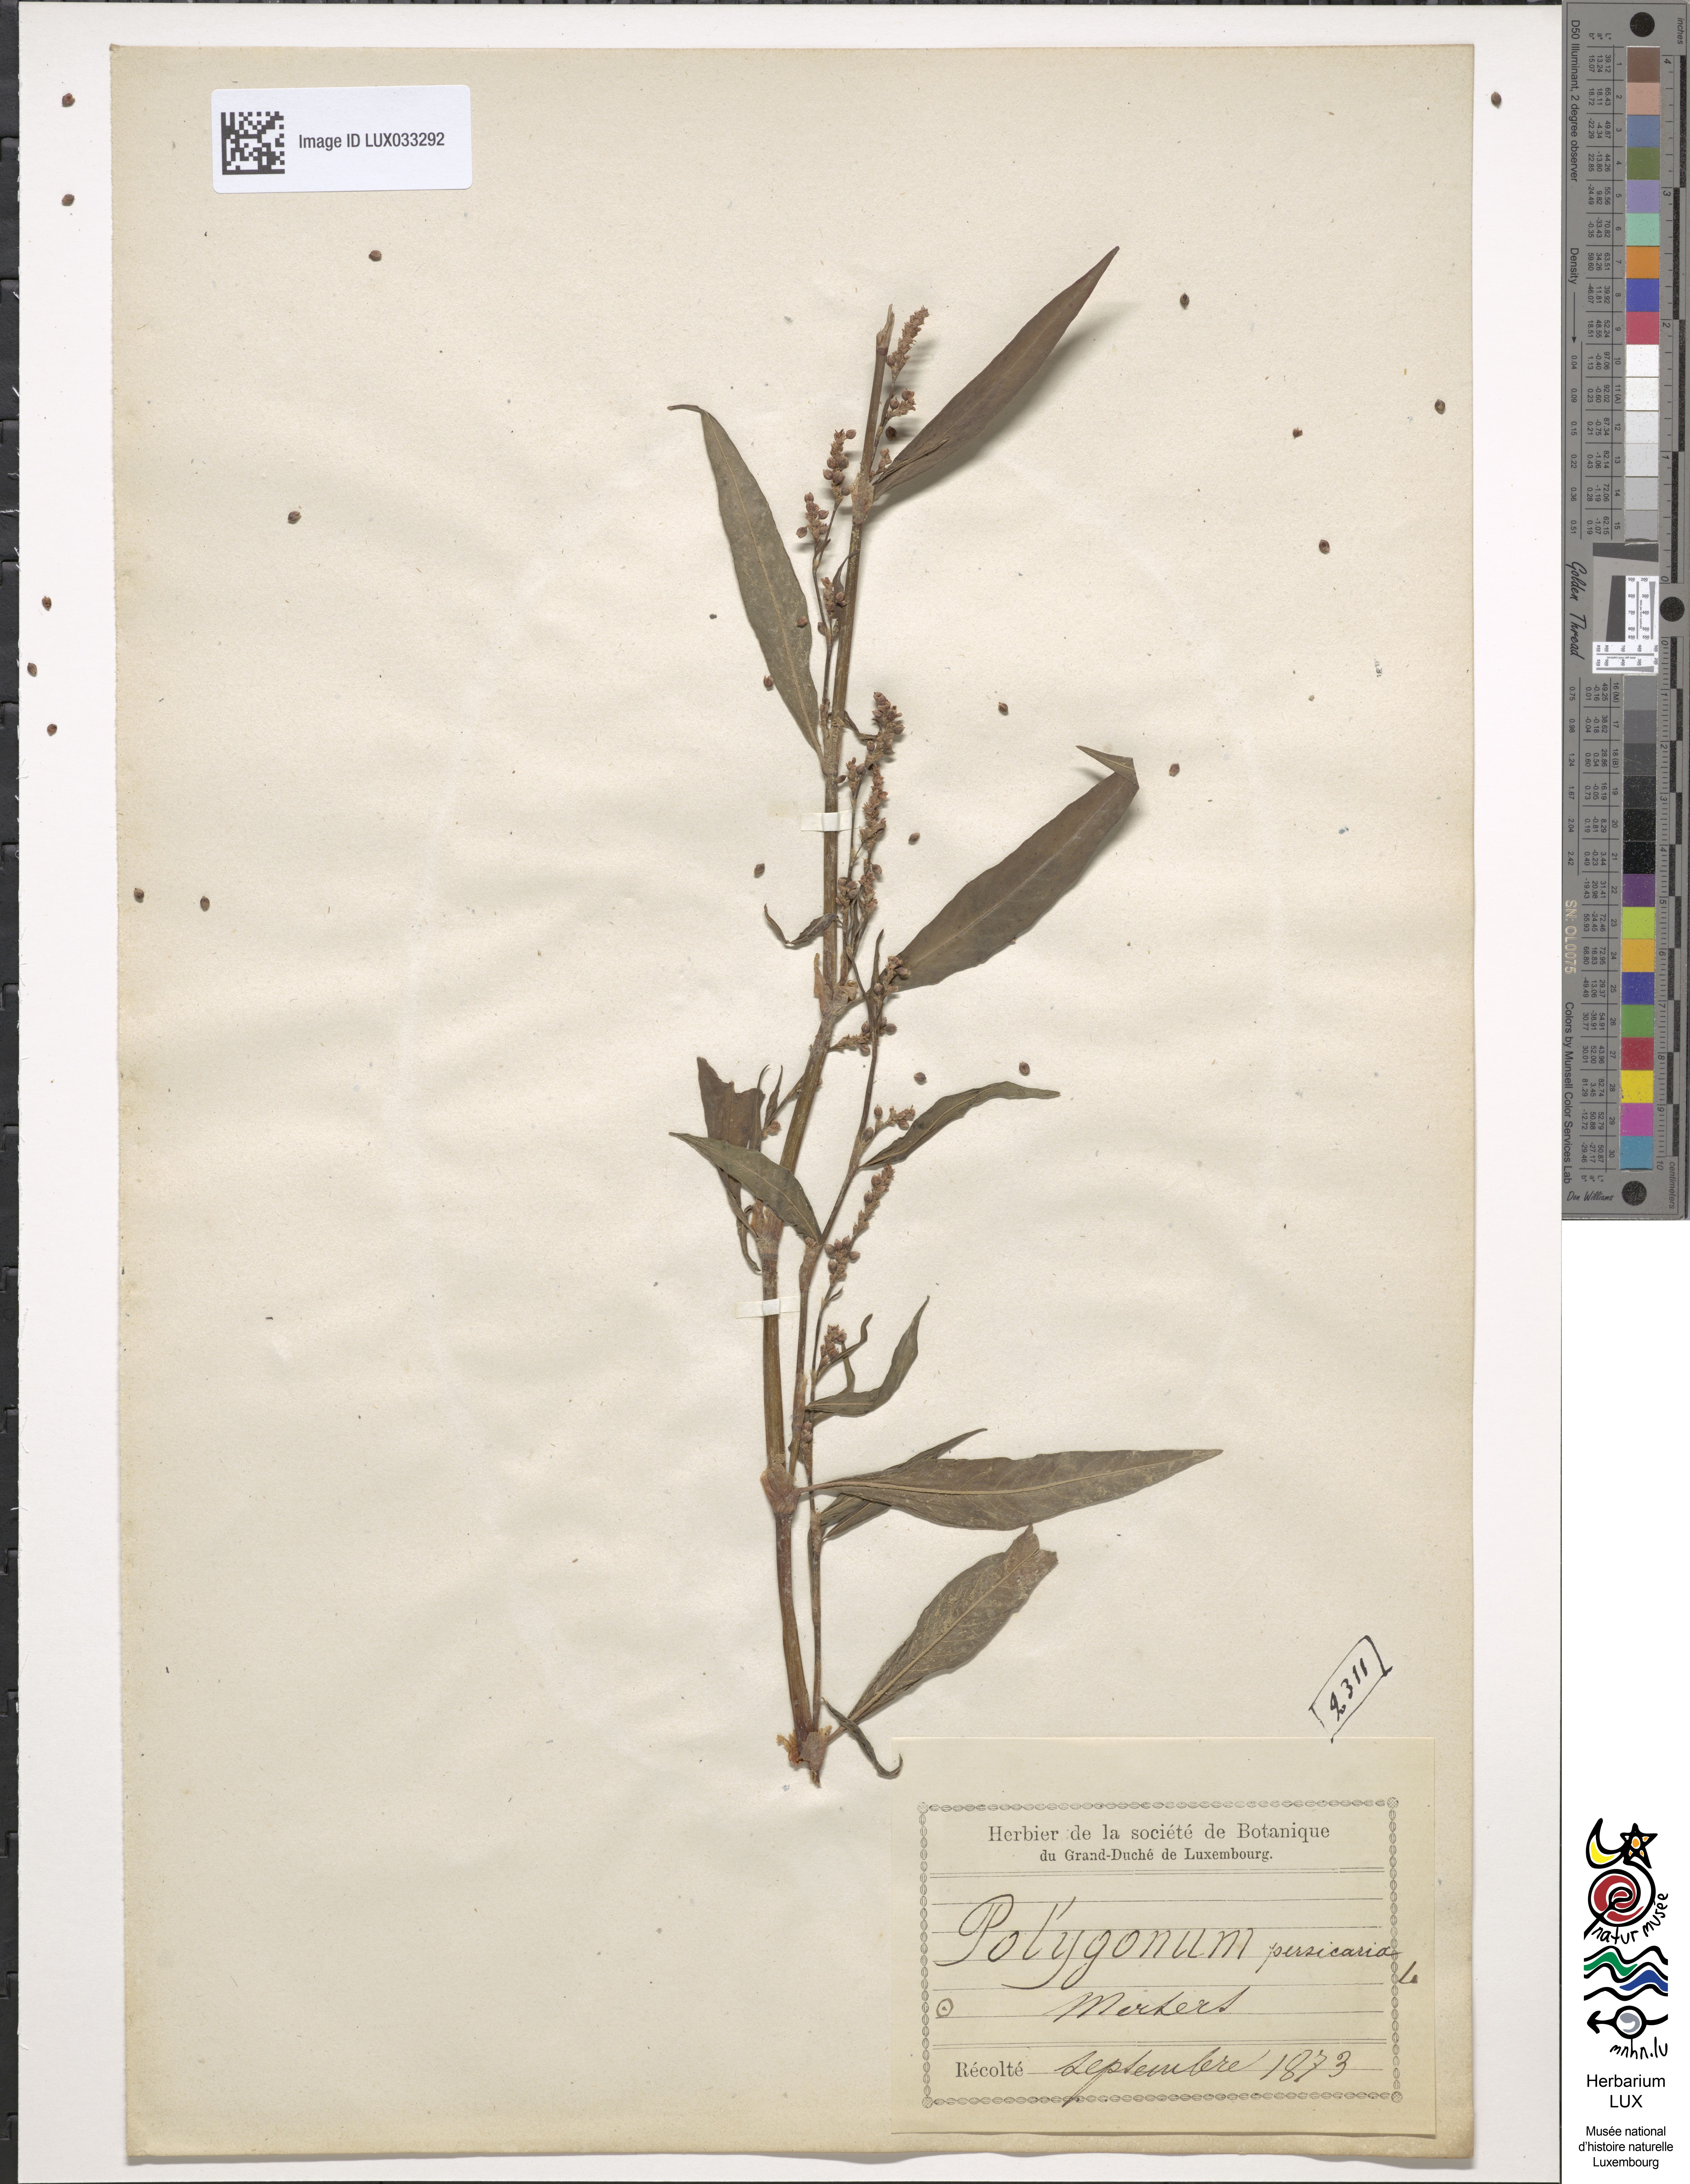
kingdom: Plantae
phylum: Tracheophyta
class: Magnoliopsida
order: Caryophyllales
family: Polygonaceae
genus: Persicaria
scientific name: Persicaria maculosa
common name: Redshank
